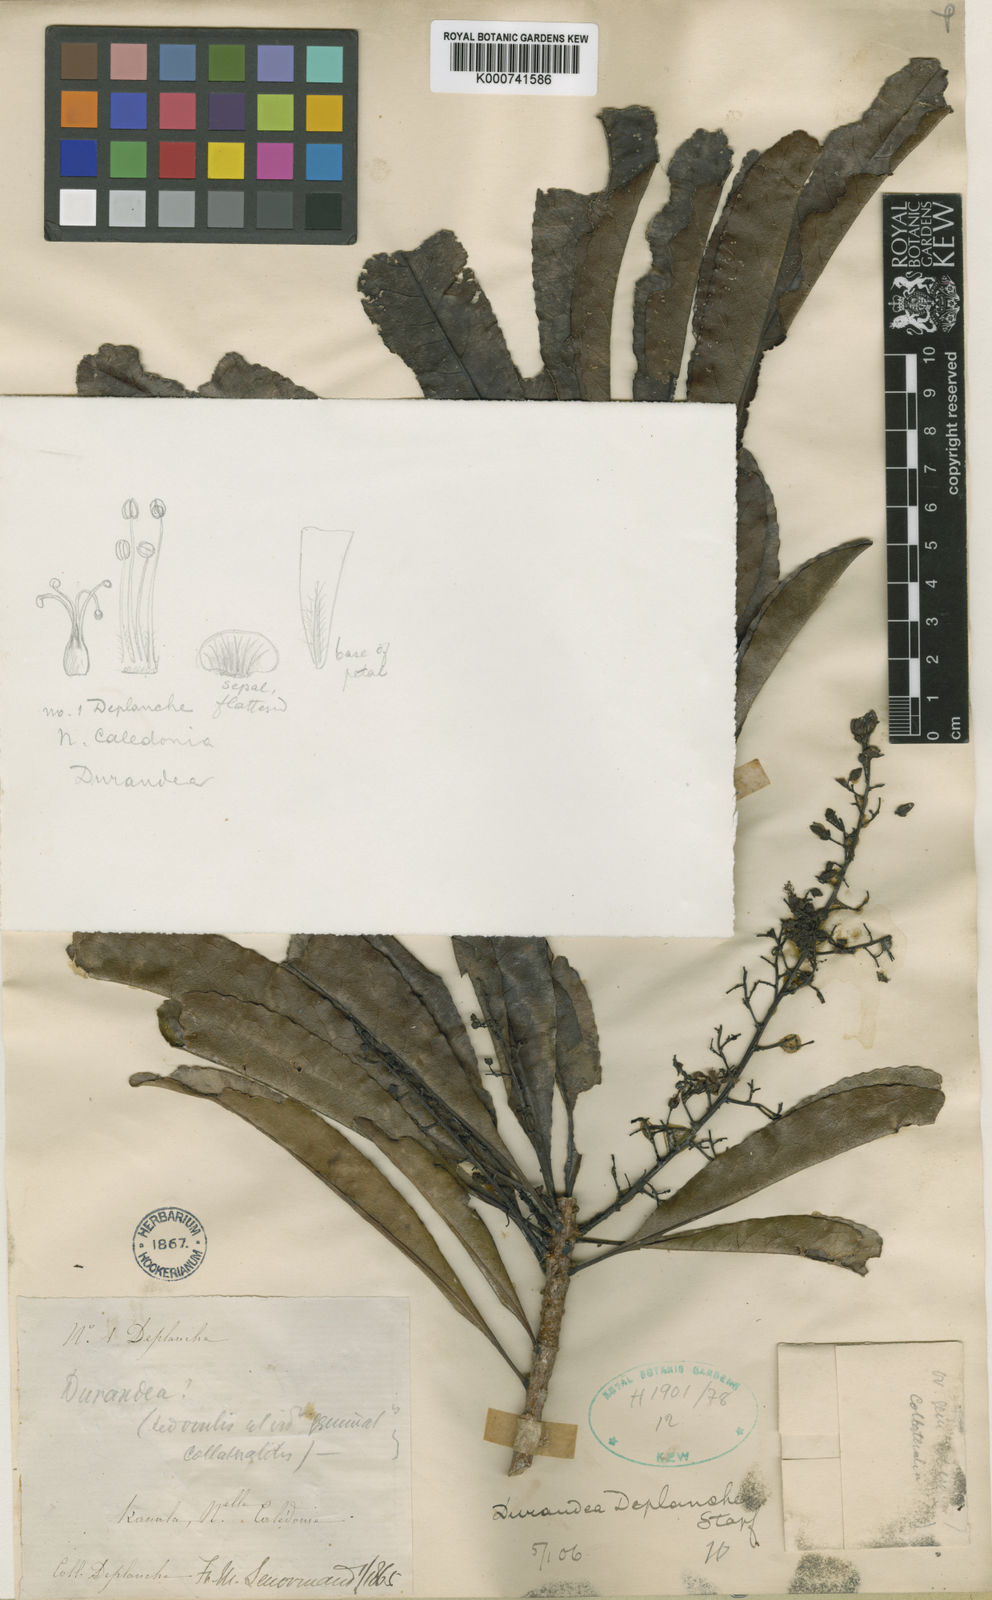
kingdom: Plantae
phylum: Tracheophyta
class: Magnoliopsida
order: Malpighiales
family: Linaceae
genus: Durandea
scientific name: Durandea deplanchei
